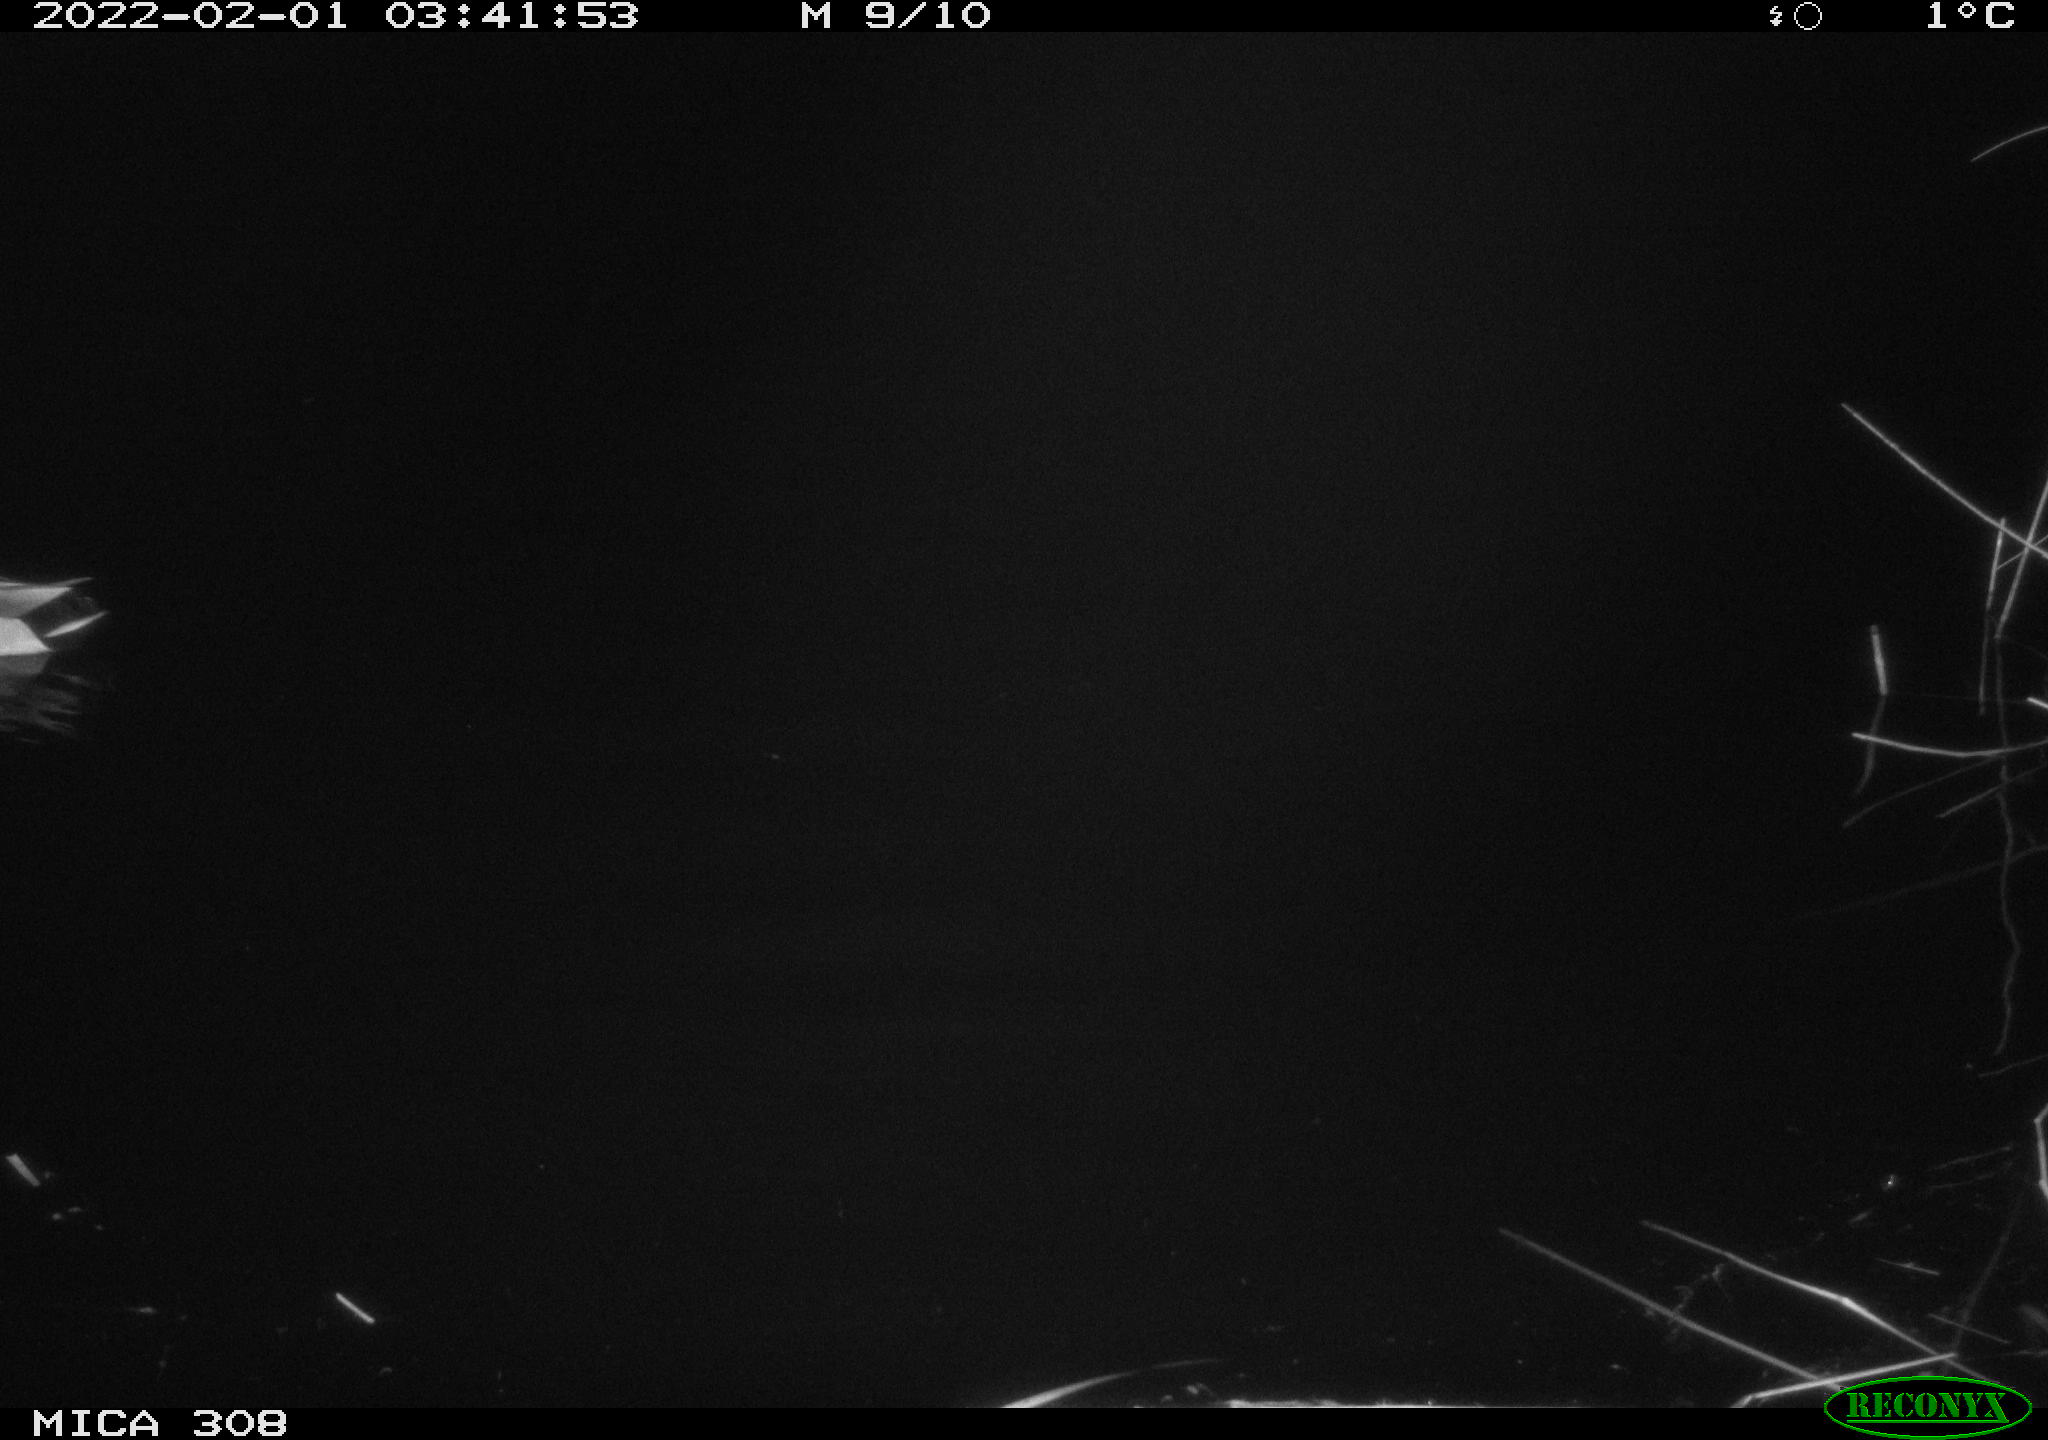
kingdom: Animalia
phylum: Chordata
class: Aves
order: Anseriformes
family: Anatidae
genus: Anas
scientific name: Anas
